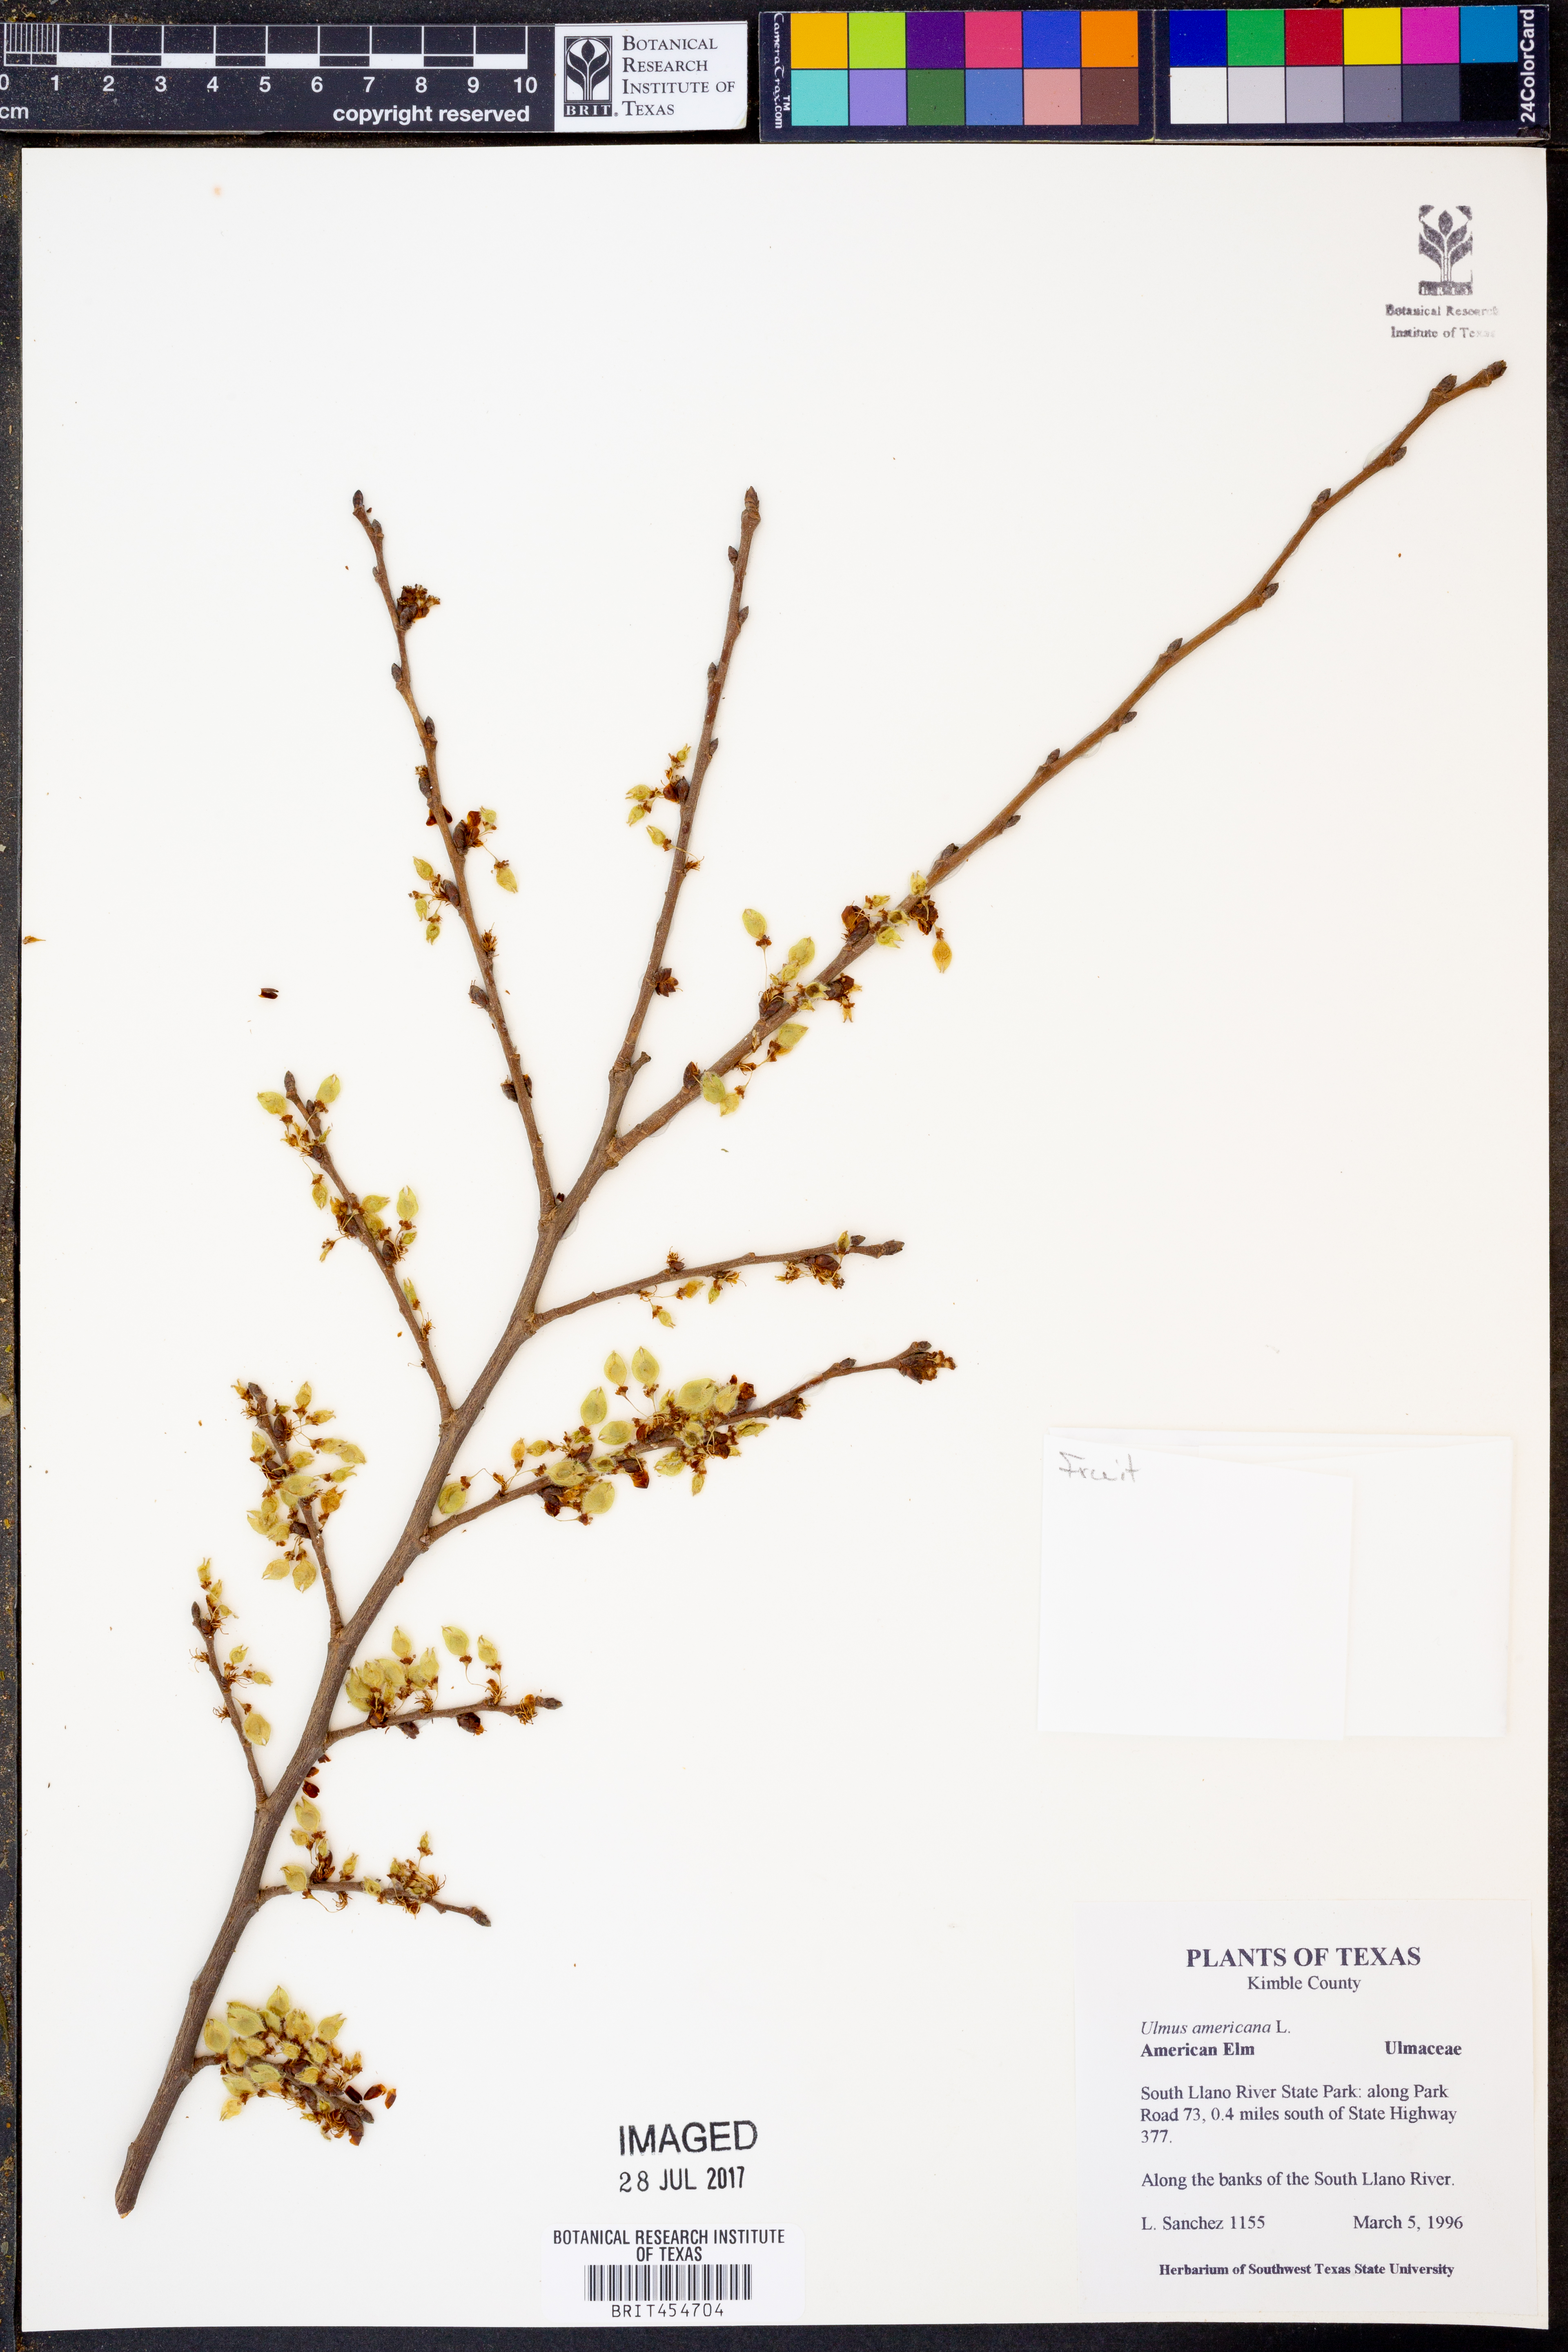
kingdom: Plantae
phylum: Tracheophyta
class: Magnoliopsida
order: Rosales
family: Ulmaceae
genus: Ulmus
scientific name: Ulmus americana
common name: American elm
